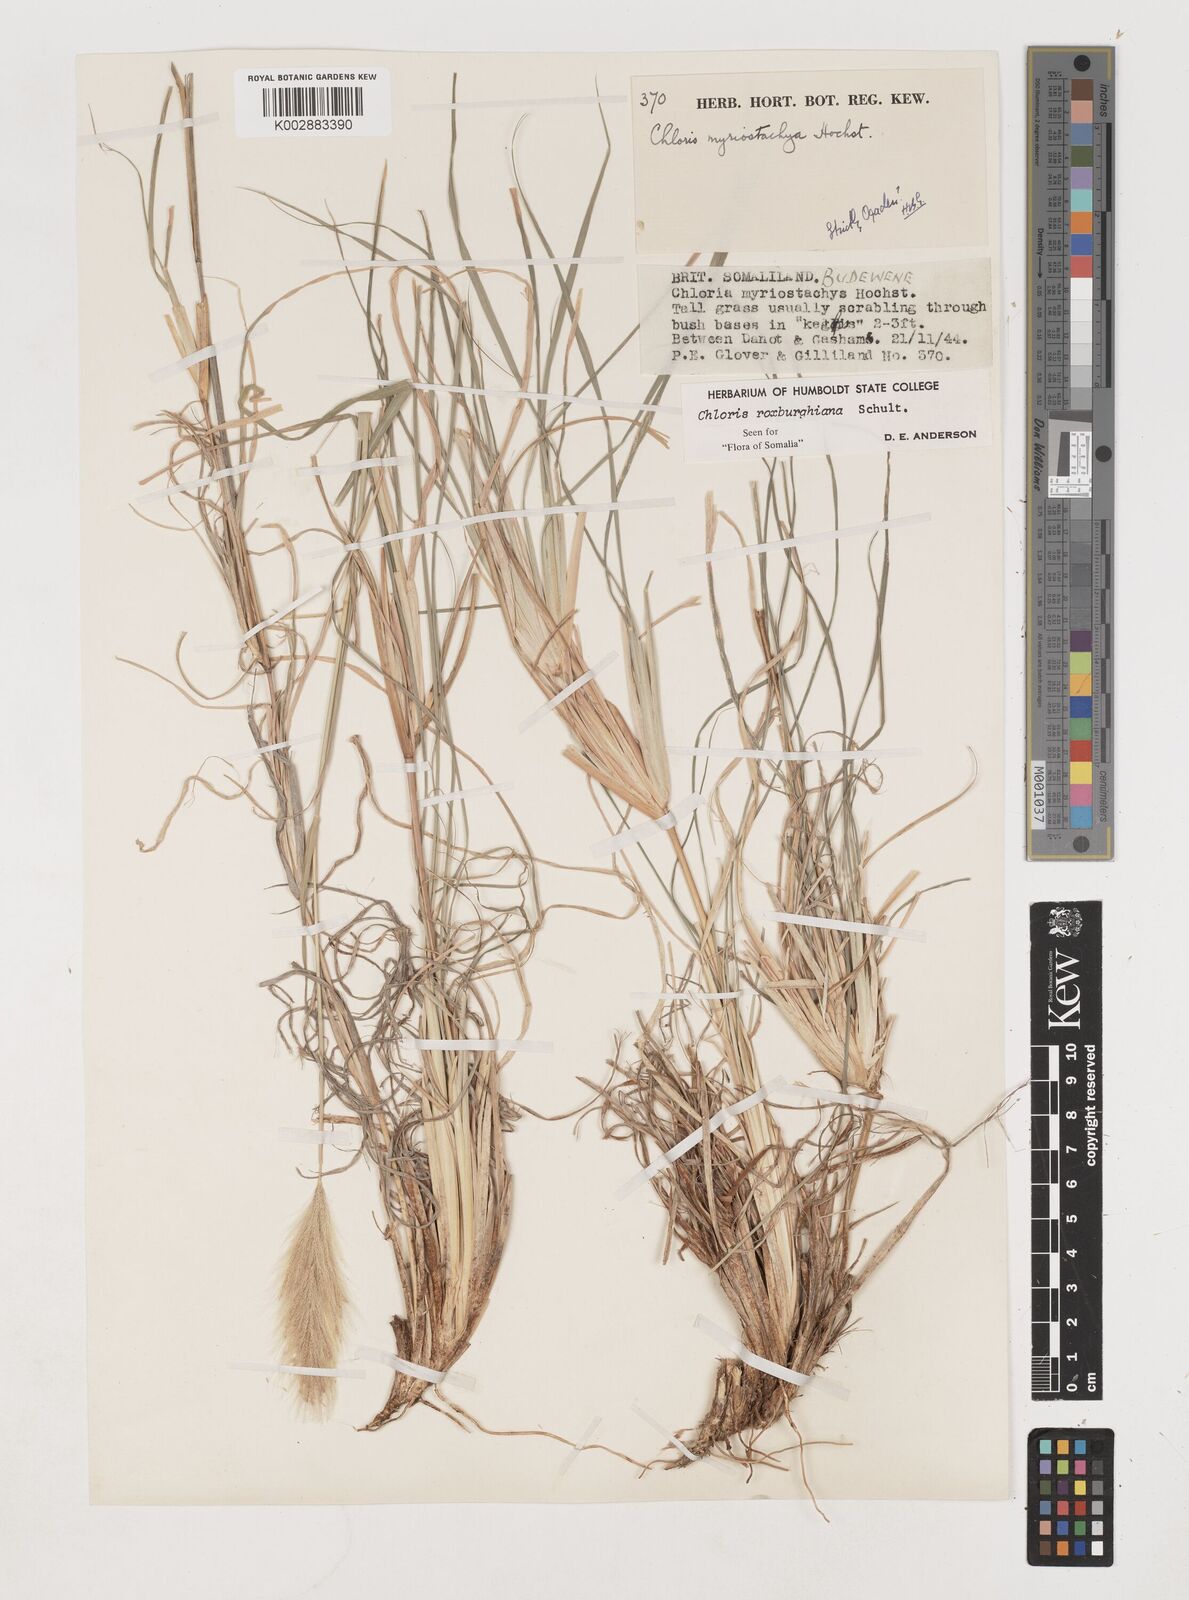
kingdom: Plantae
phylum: Tracheophyta
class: Liliopsida
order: Poales
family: Poaceae
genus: Tetrapogon
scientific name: Tetrapogon roxburghiana
